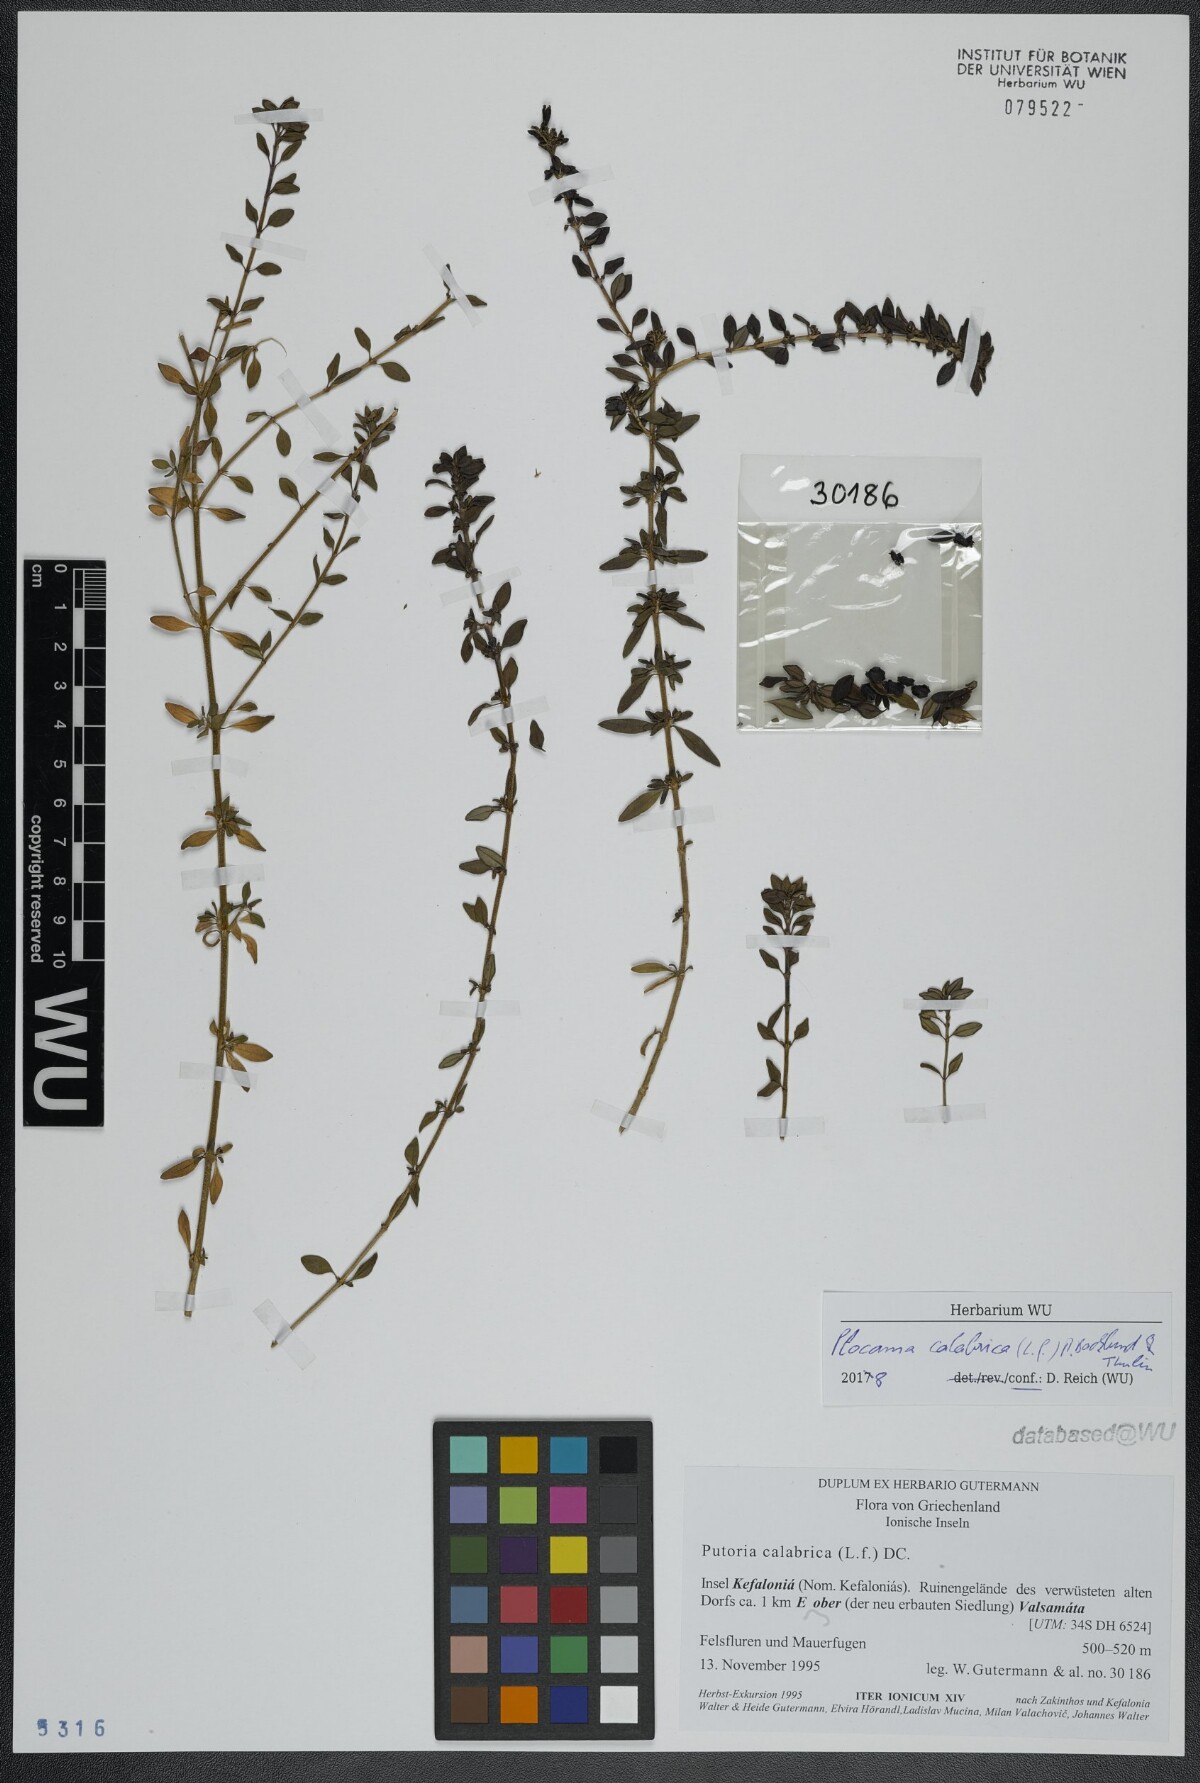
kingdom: Plantae
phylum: Tracheophyta
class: Magnoliopsida
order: Gentianales
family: Rubiaceae
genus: Plocama
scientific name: Plocama calabrica
